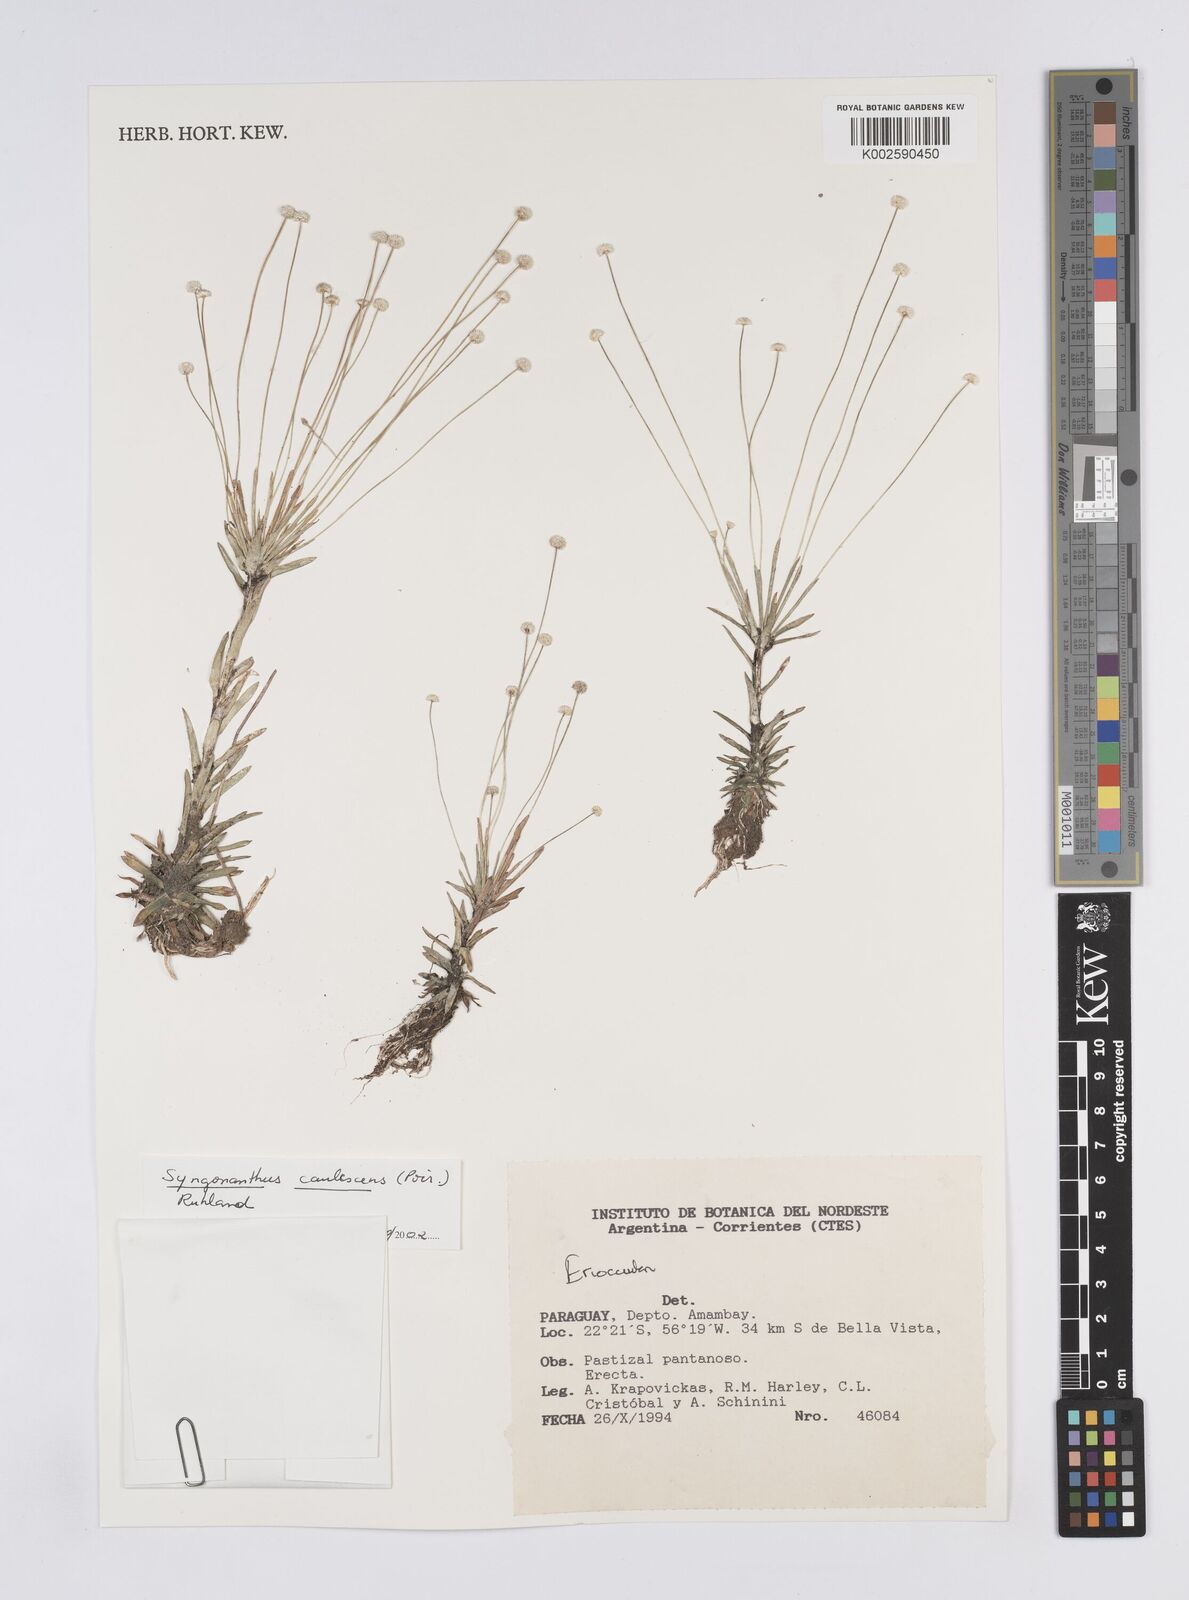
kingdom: Plantae
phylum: Tracheophyta
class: Liliopsida
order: Poales
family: Eriocaulaceae
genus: Syngonanthus
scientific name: Syngonanthus caulescens
